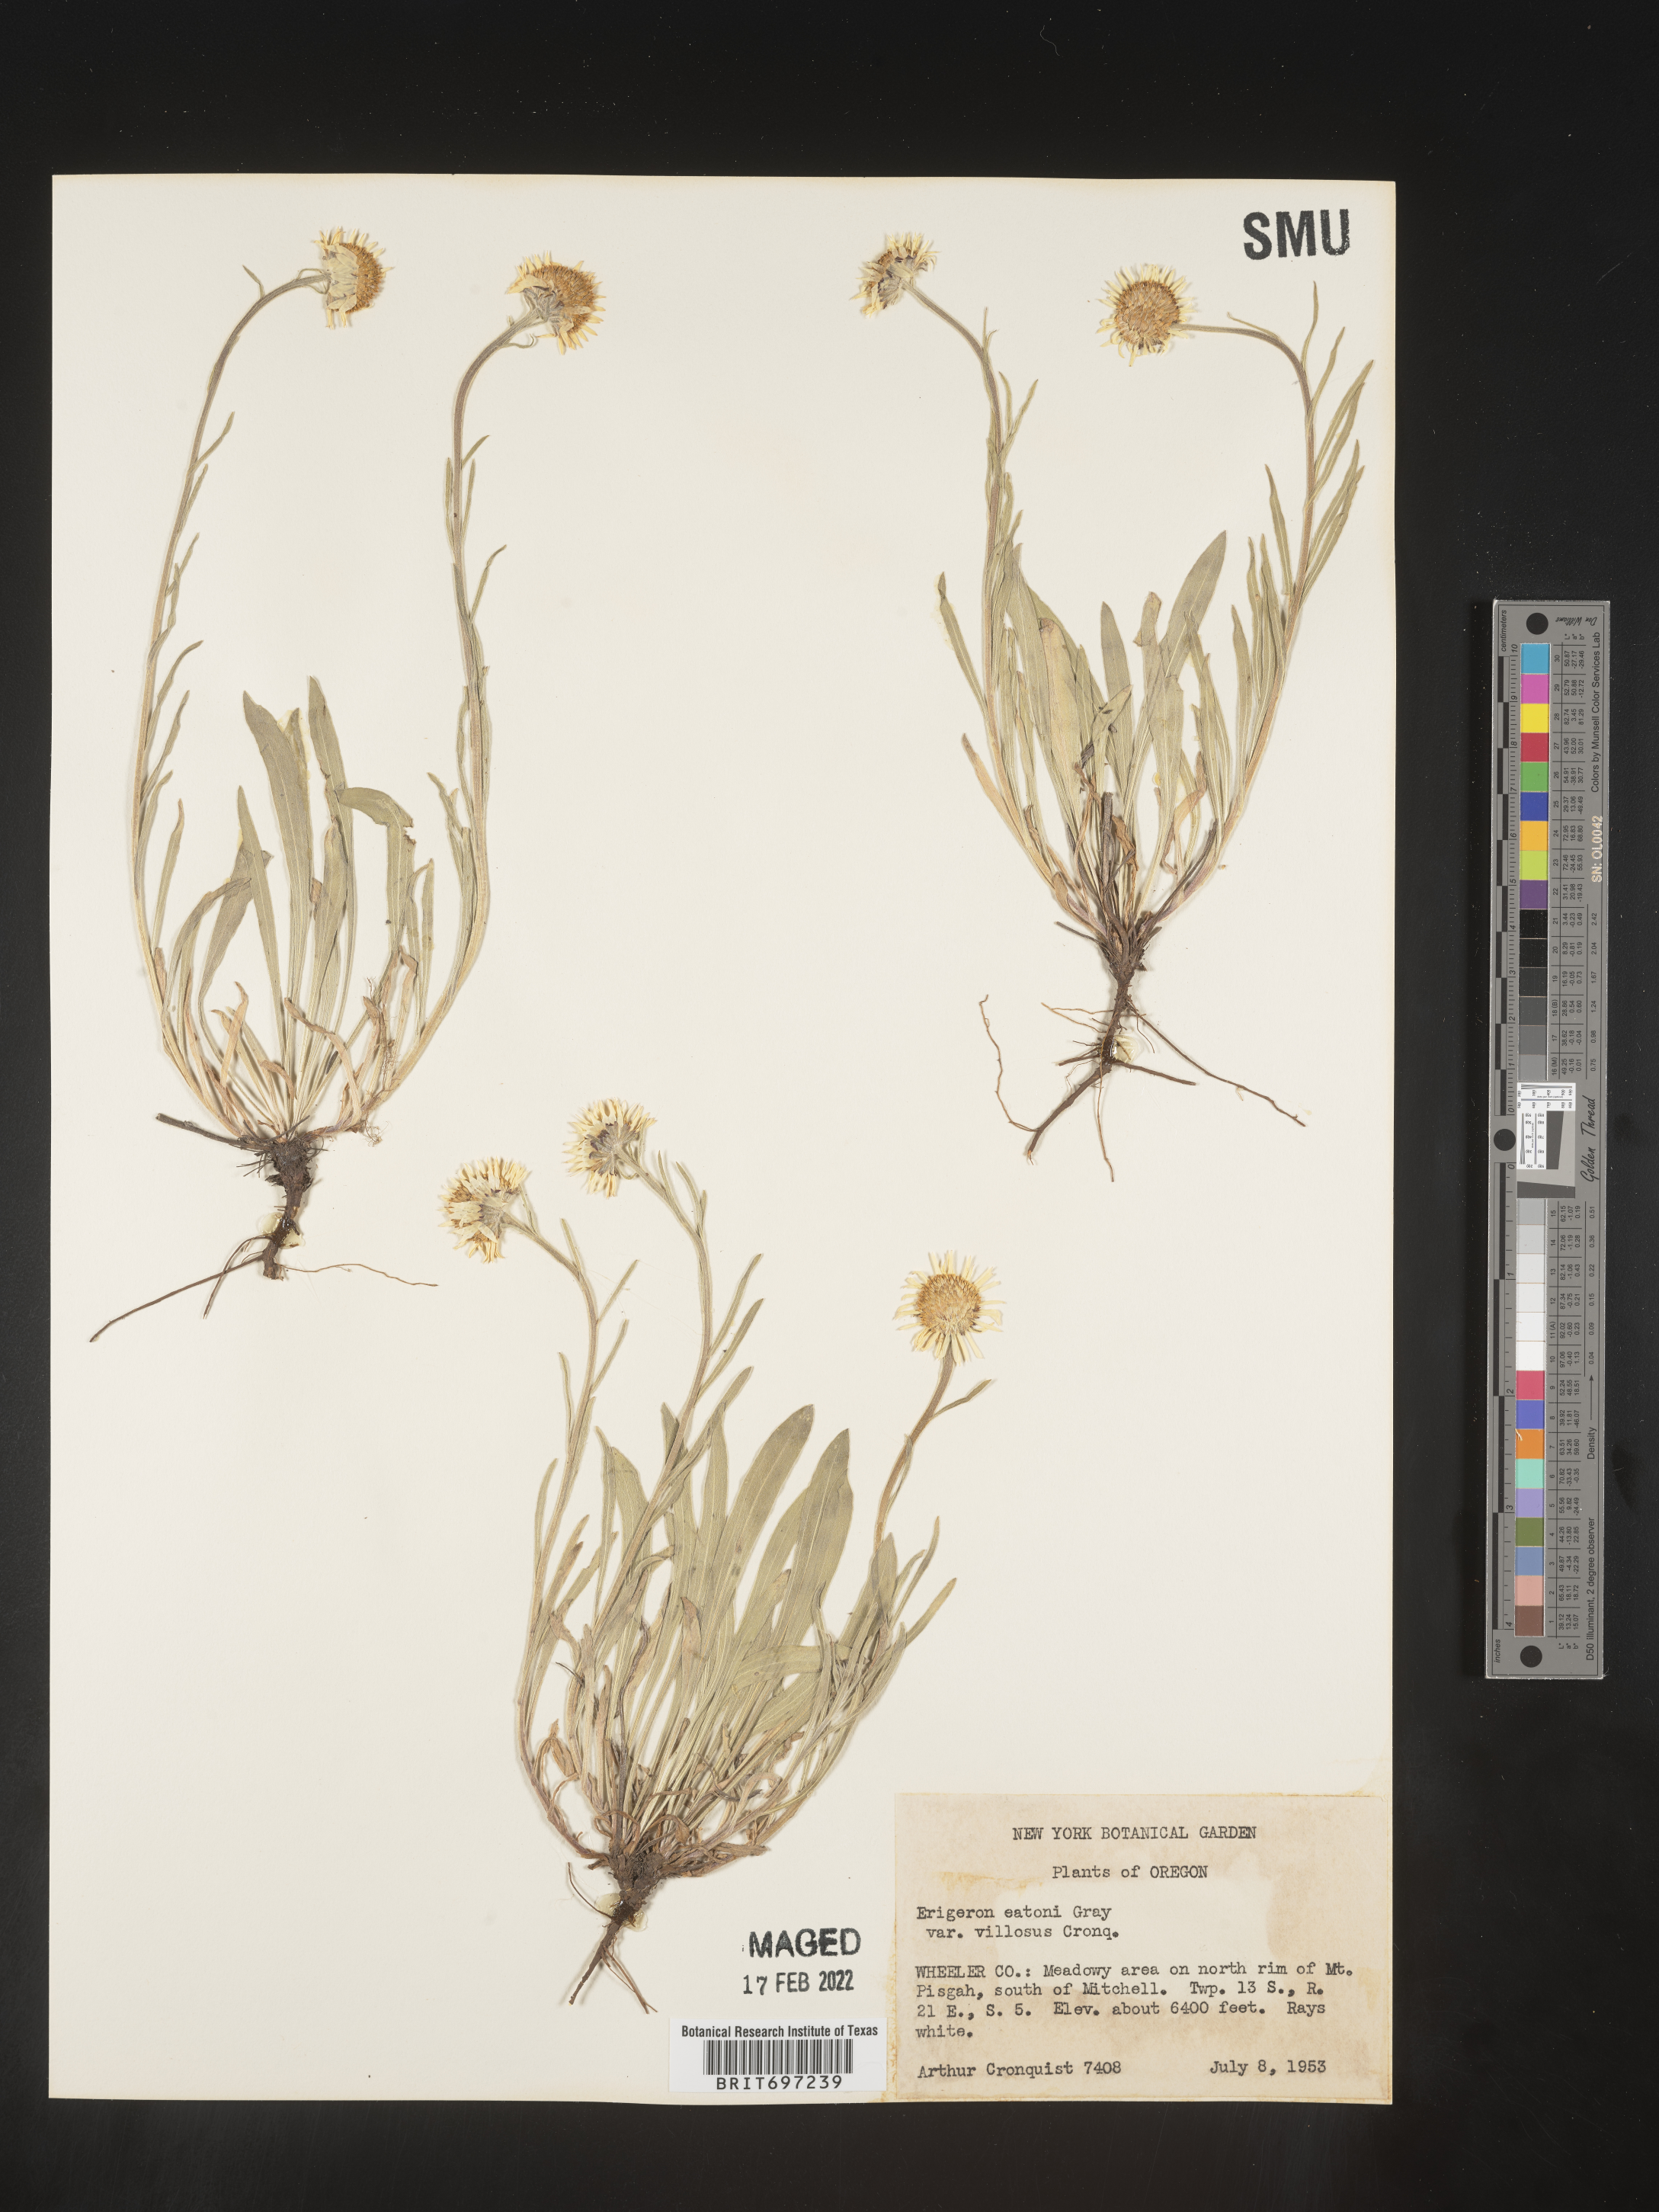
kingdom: Plantae
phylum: Tracheophyta
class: Magnoliopsida
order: Asterales
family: Asteraceae
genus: Erigeron
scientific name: Erigeron eatonii
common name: Eaton's fleabane
